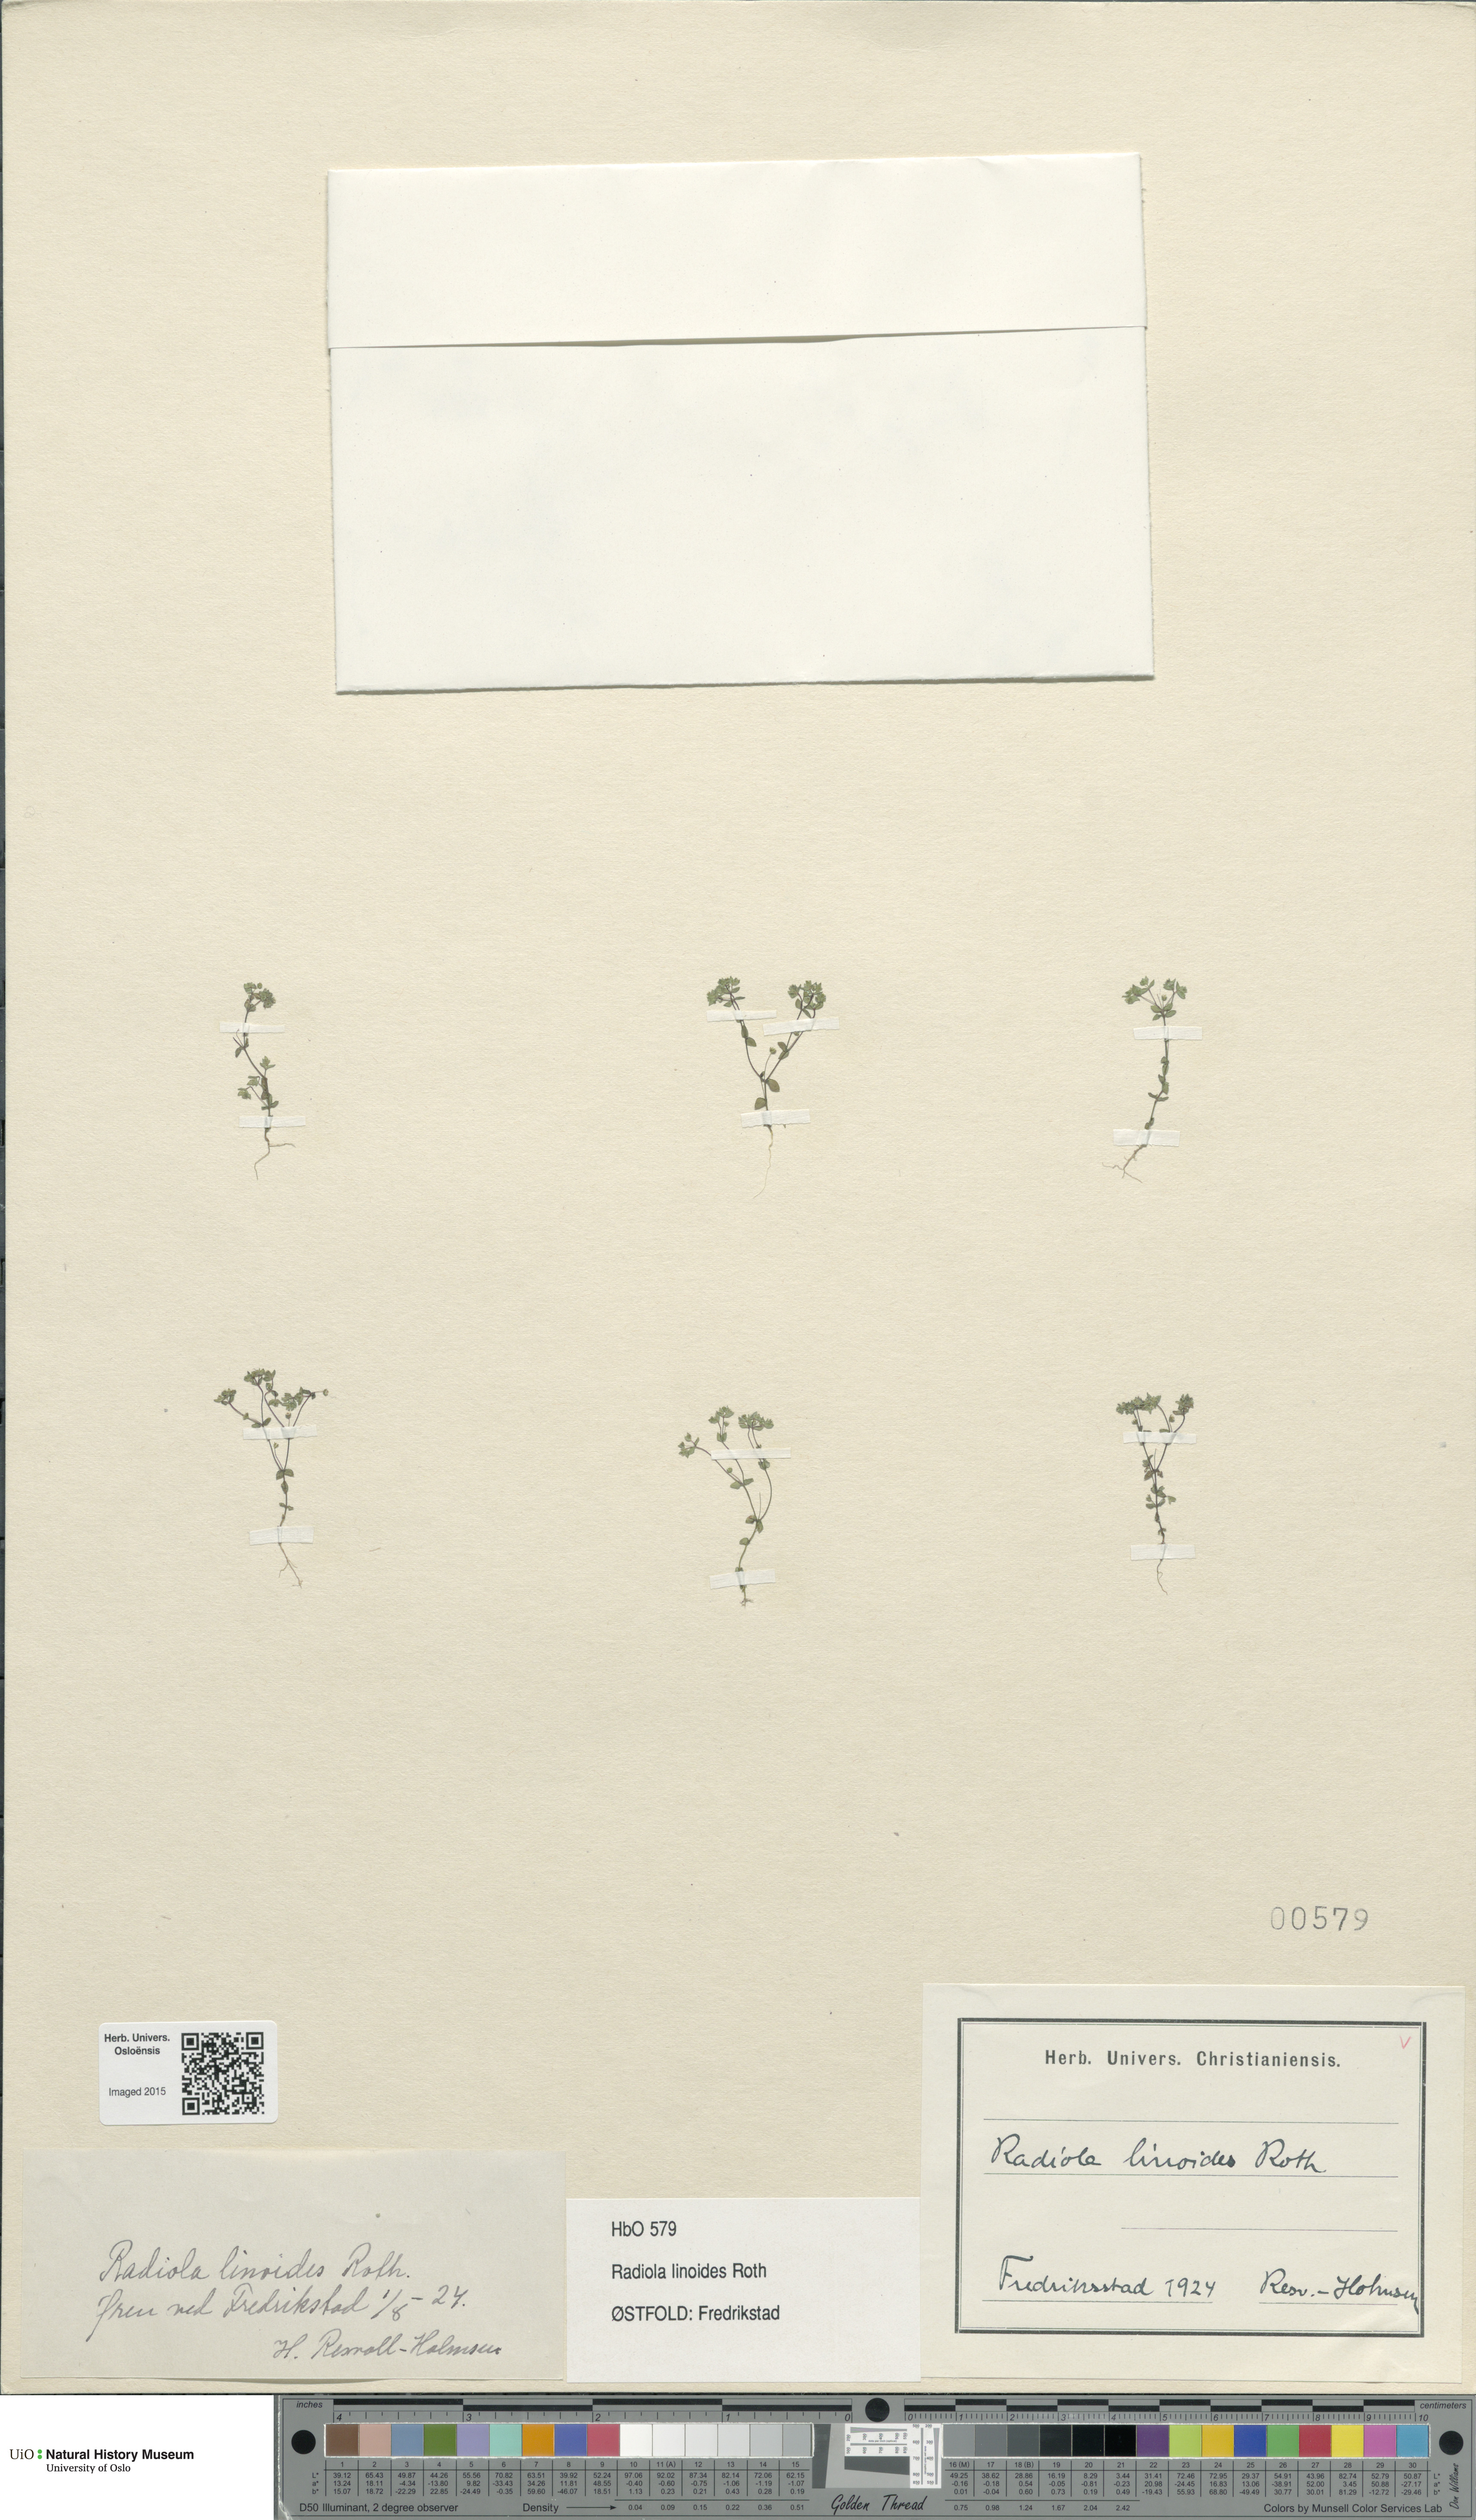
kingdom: Plantae
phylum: Tracheophyta
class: Magnoliopsida
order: Malpighiales
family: Linaceae
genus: Radiola
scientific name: Radiola linoides
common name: Allseed
